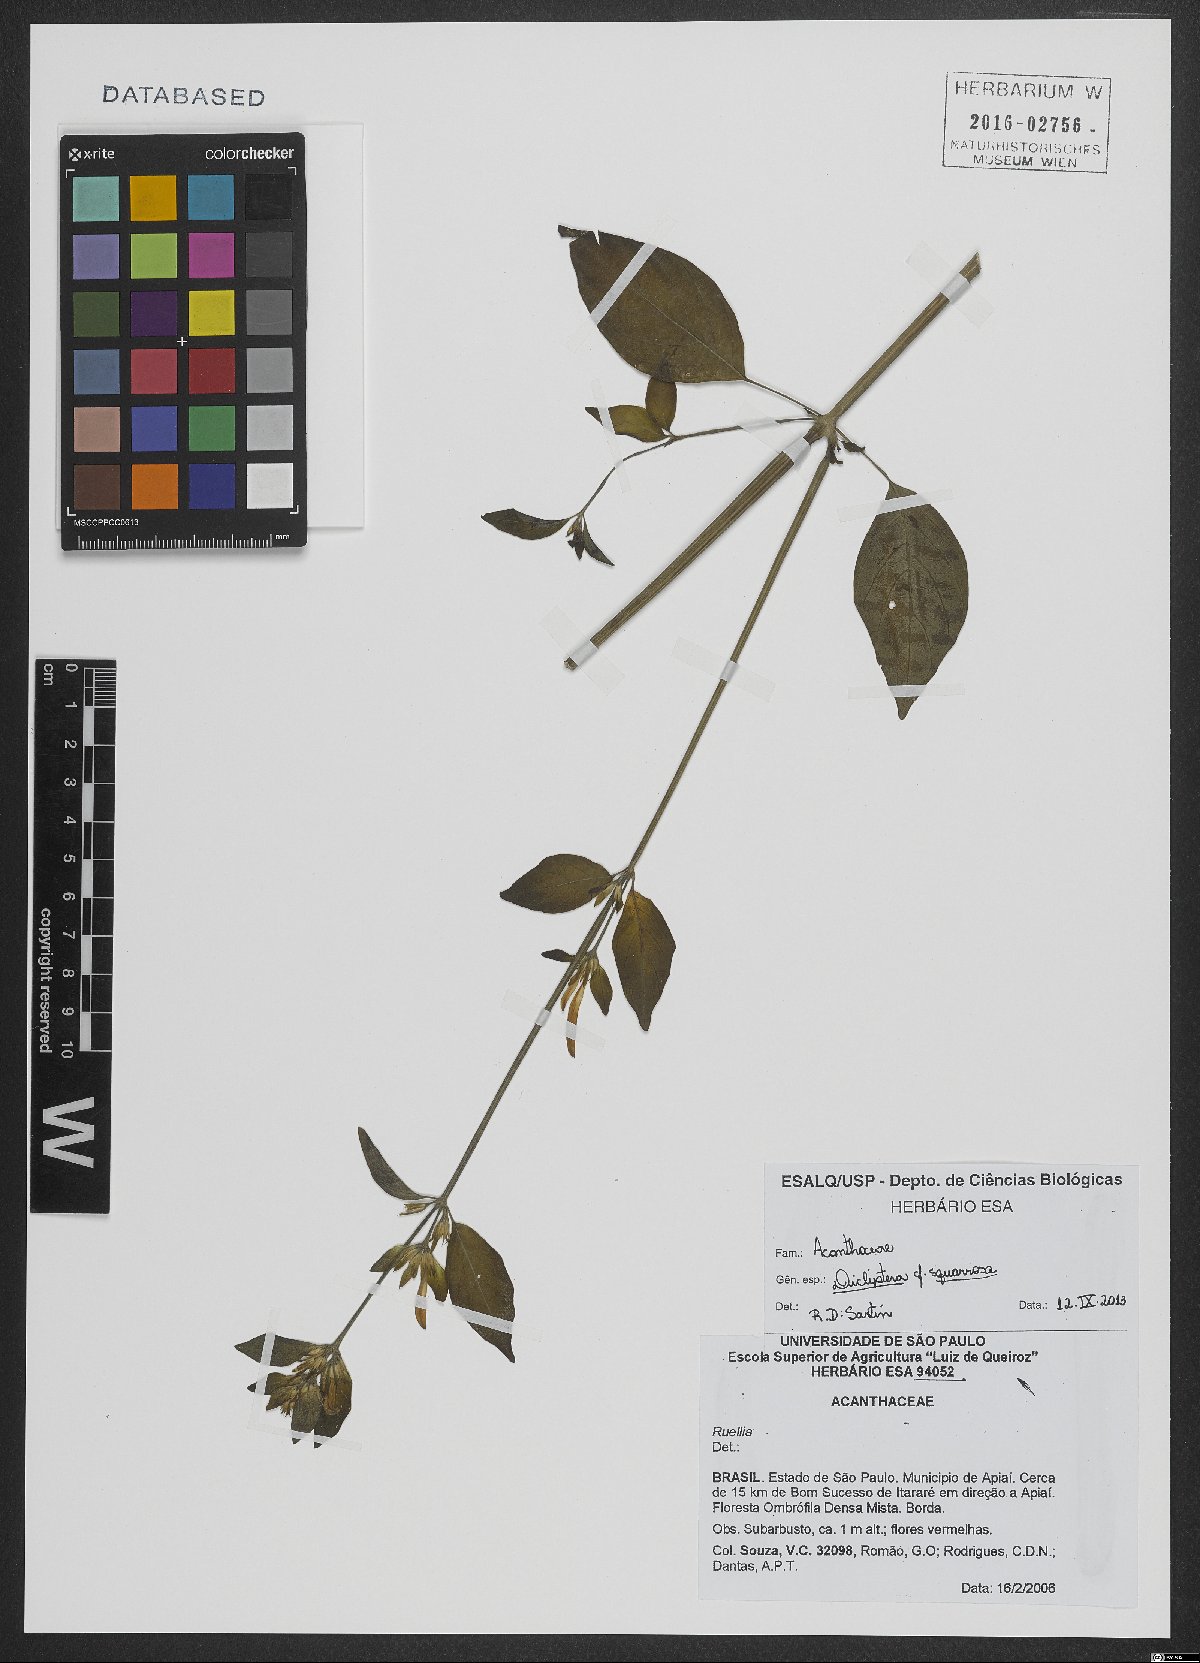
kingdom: Plantae
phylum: Tracheophyta
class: Magnoliopsida
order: Lamiales
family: Acanthaceae
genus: Dicliptera
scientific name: Dicliptera squarrosa
